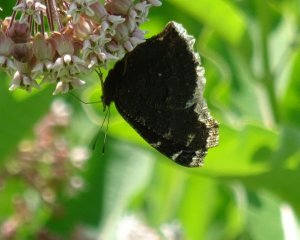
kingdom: Animalia
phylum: Arthropoda
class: Insecta
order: Lepidoptera
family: Nymphalidae
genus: Nymphalis
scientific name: Nymphalis antiopa
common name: Mourning Cloak
